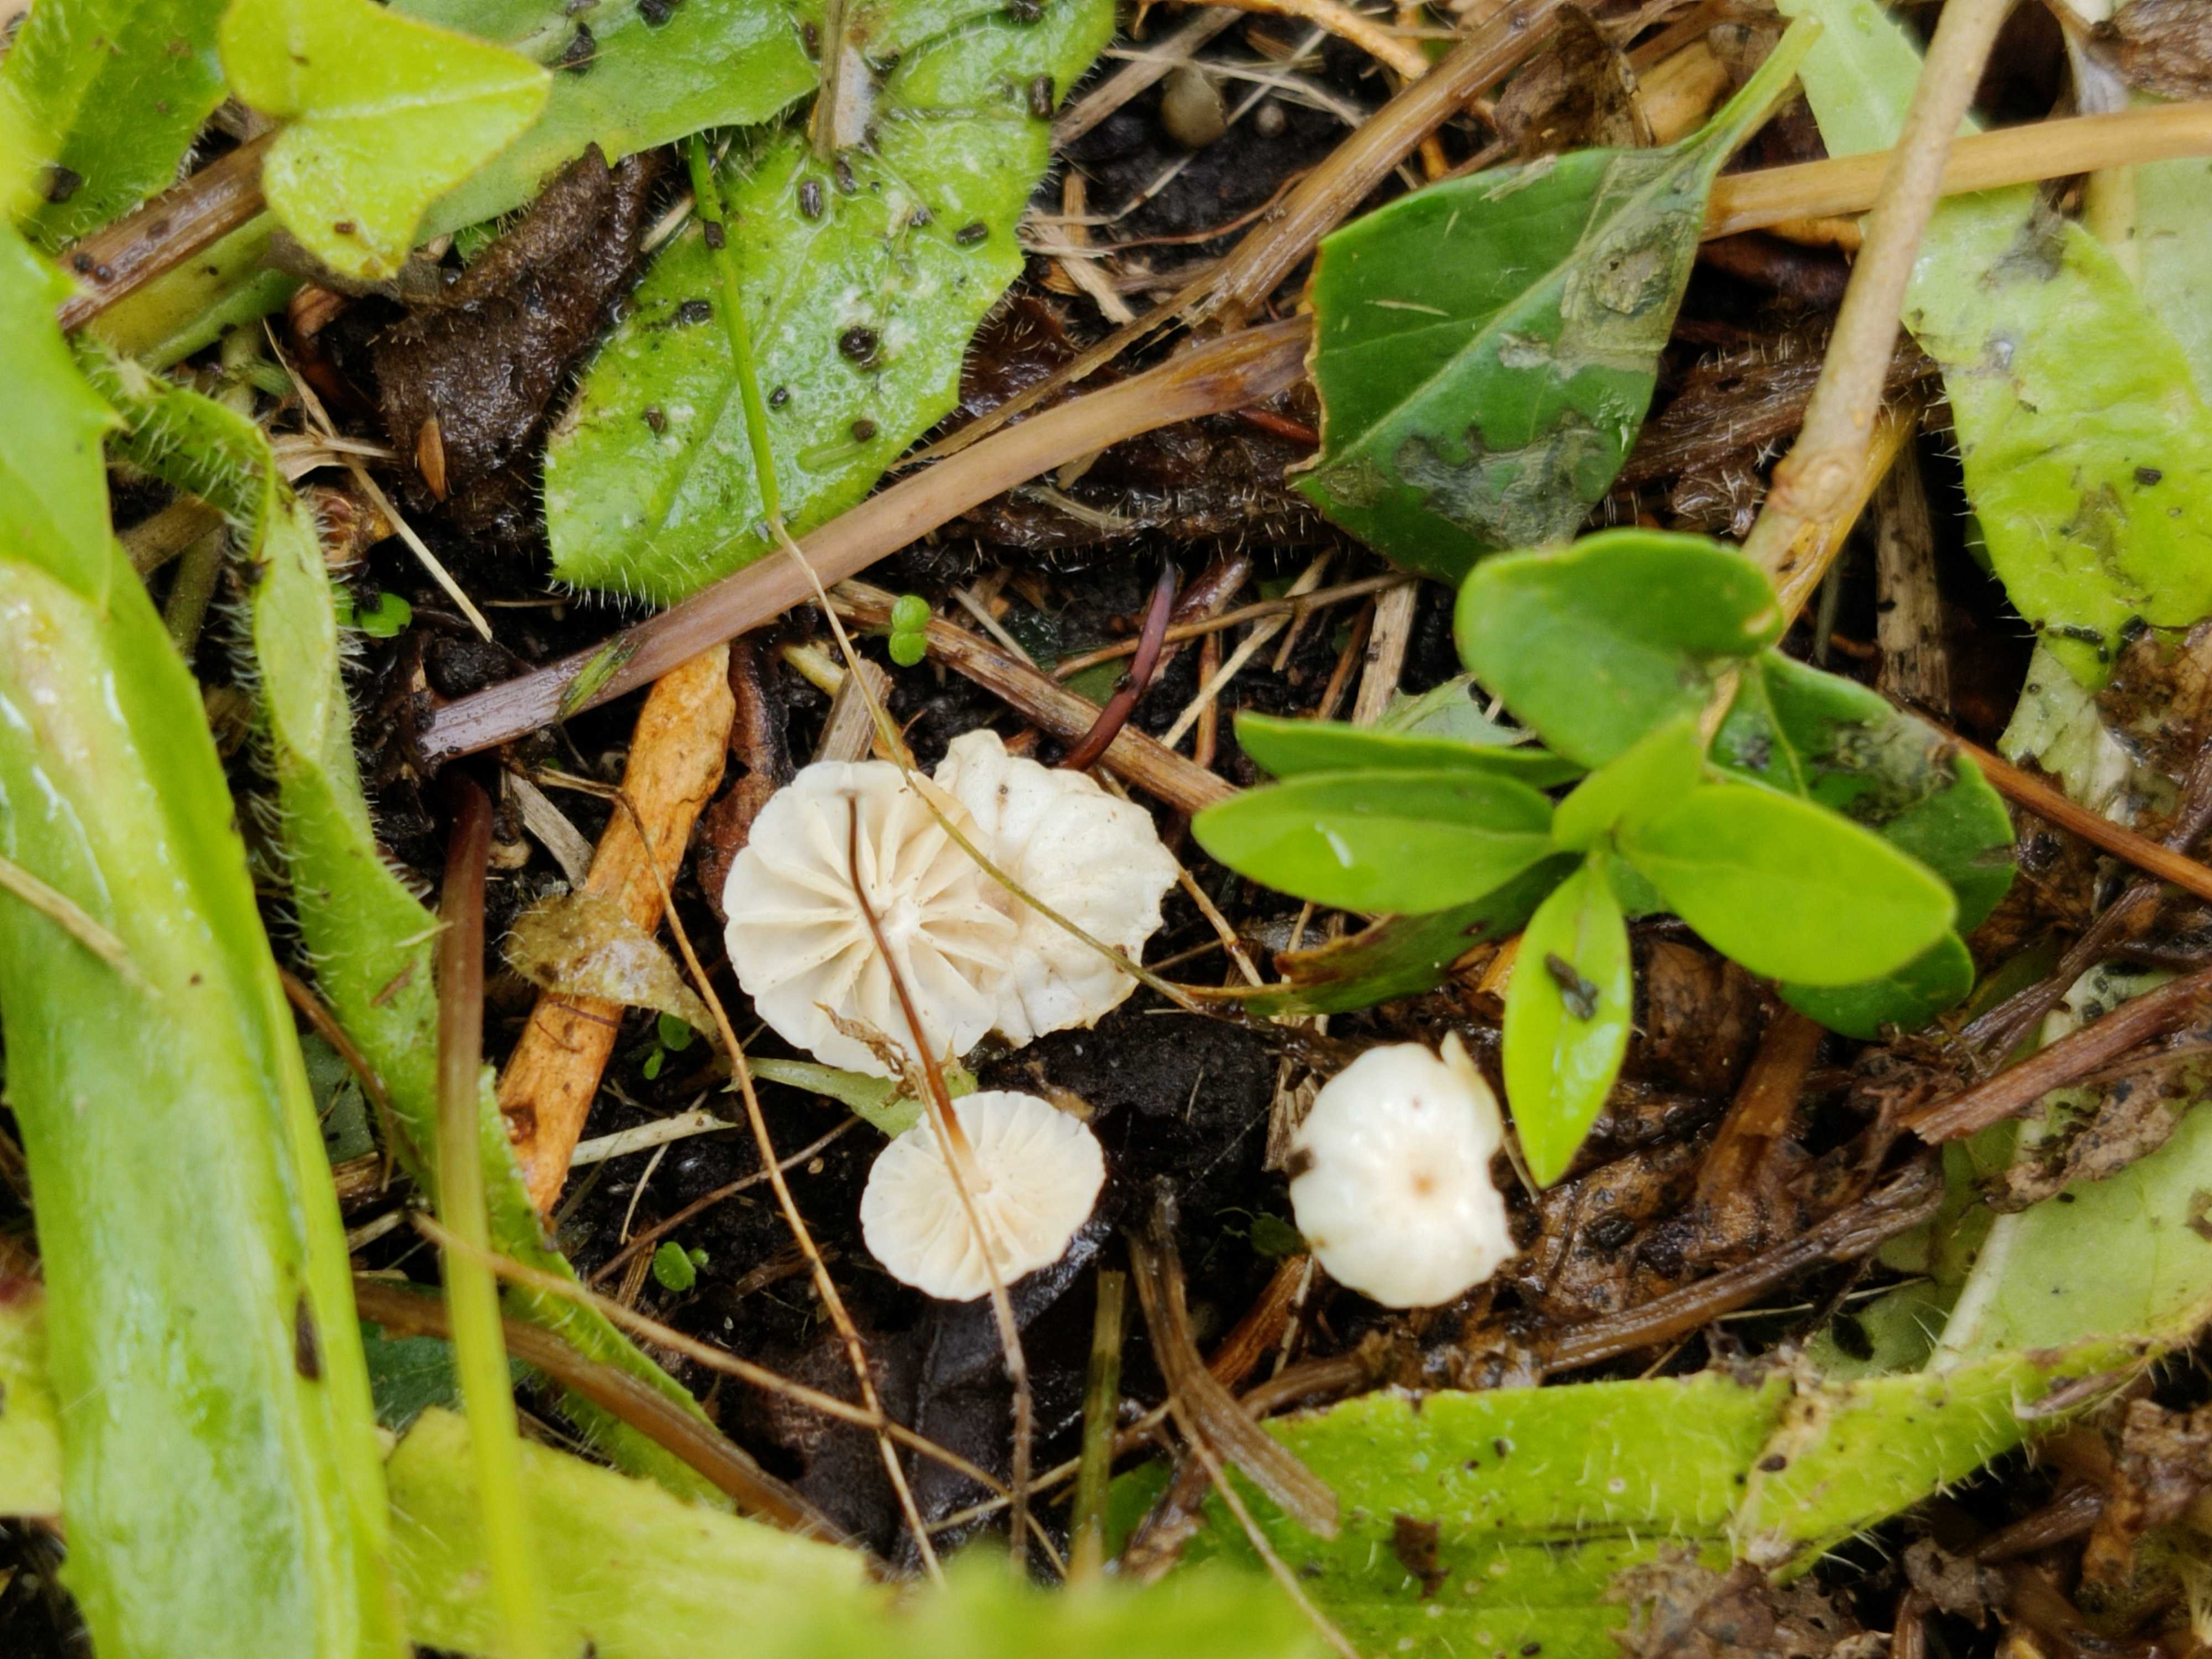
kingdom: Fungi
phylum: Basidiomycota
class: Agaricomycetes
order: Agaricales
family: Marasmiaceae
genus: Marasmius
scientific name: Marasmius rotula
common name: hjul-bruskhat
